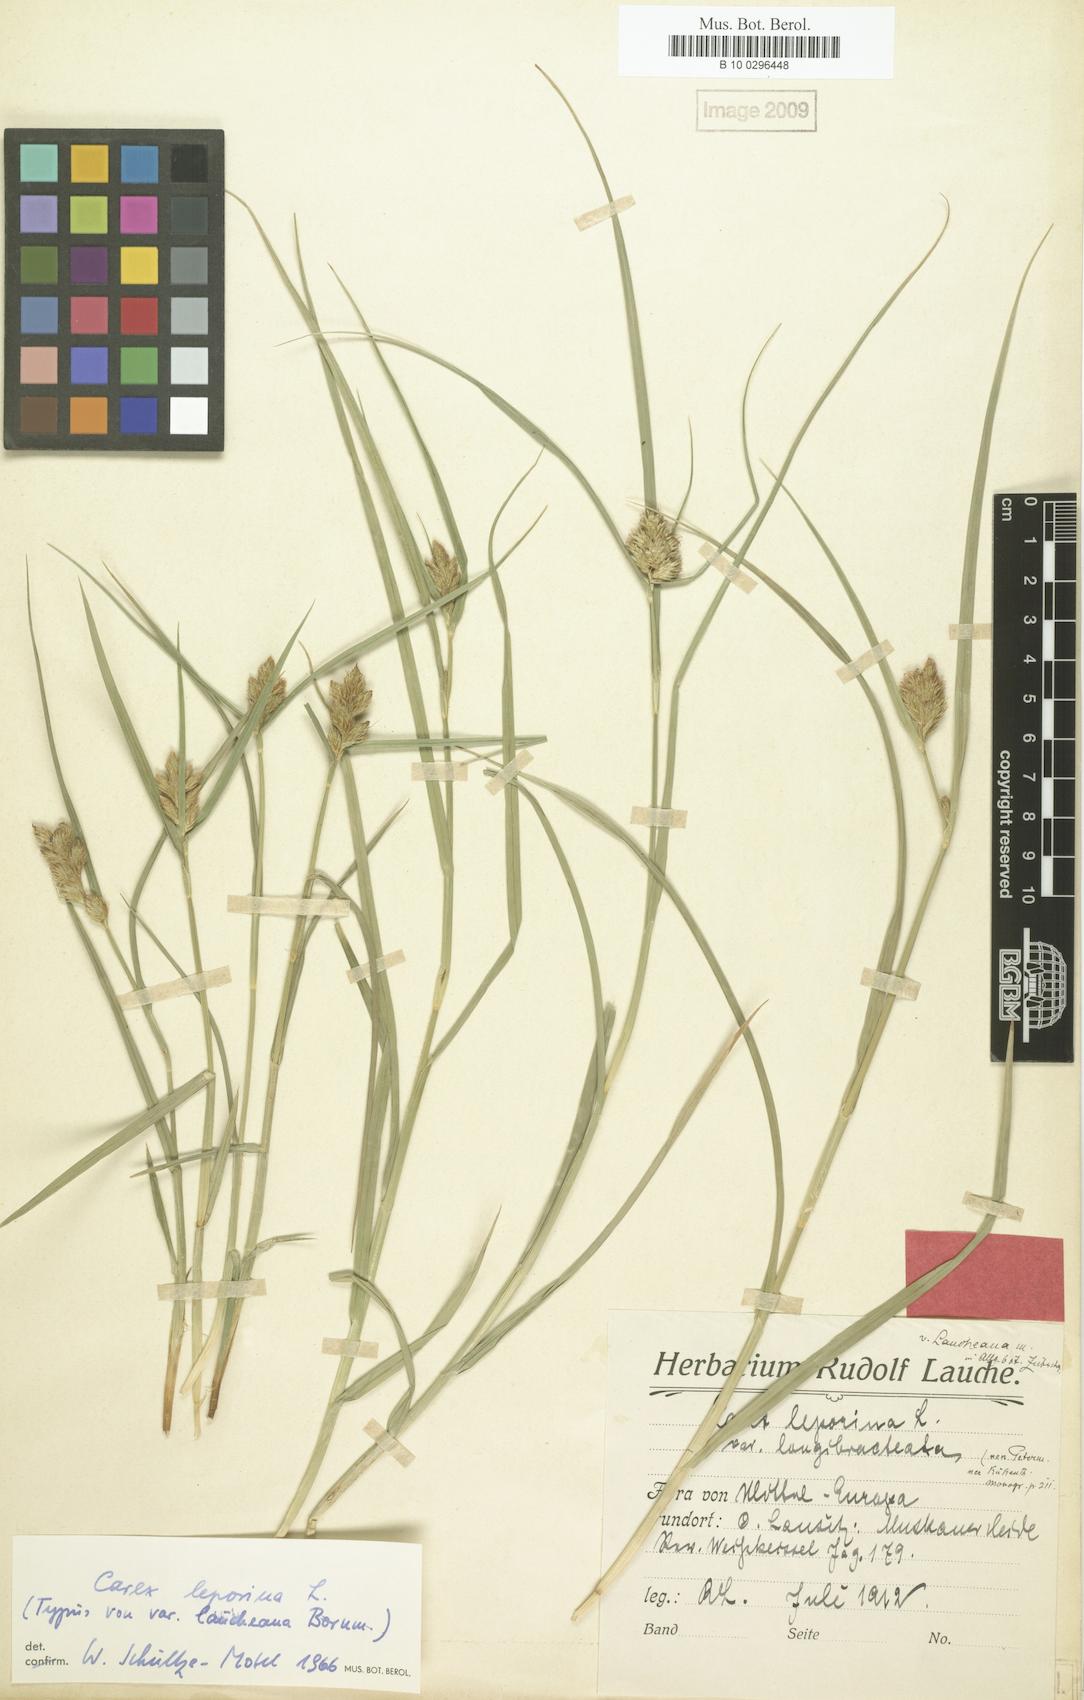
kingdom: Plantae
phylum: Tracheophyta
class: Liliopsida
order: Poales
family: Cyperaceae
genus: Carex
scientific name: Carex leporina
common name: Oval sedge
